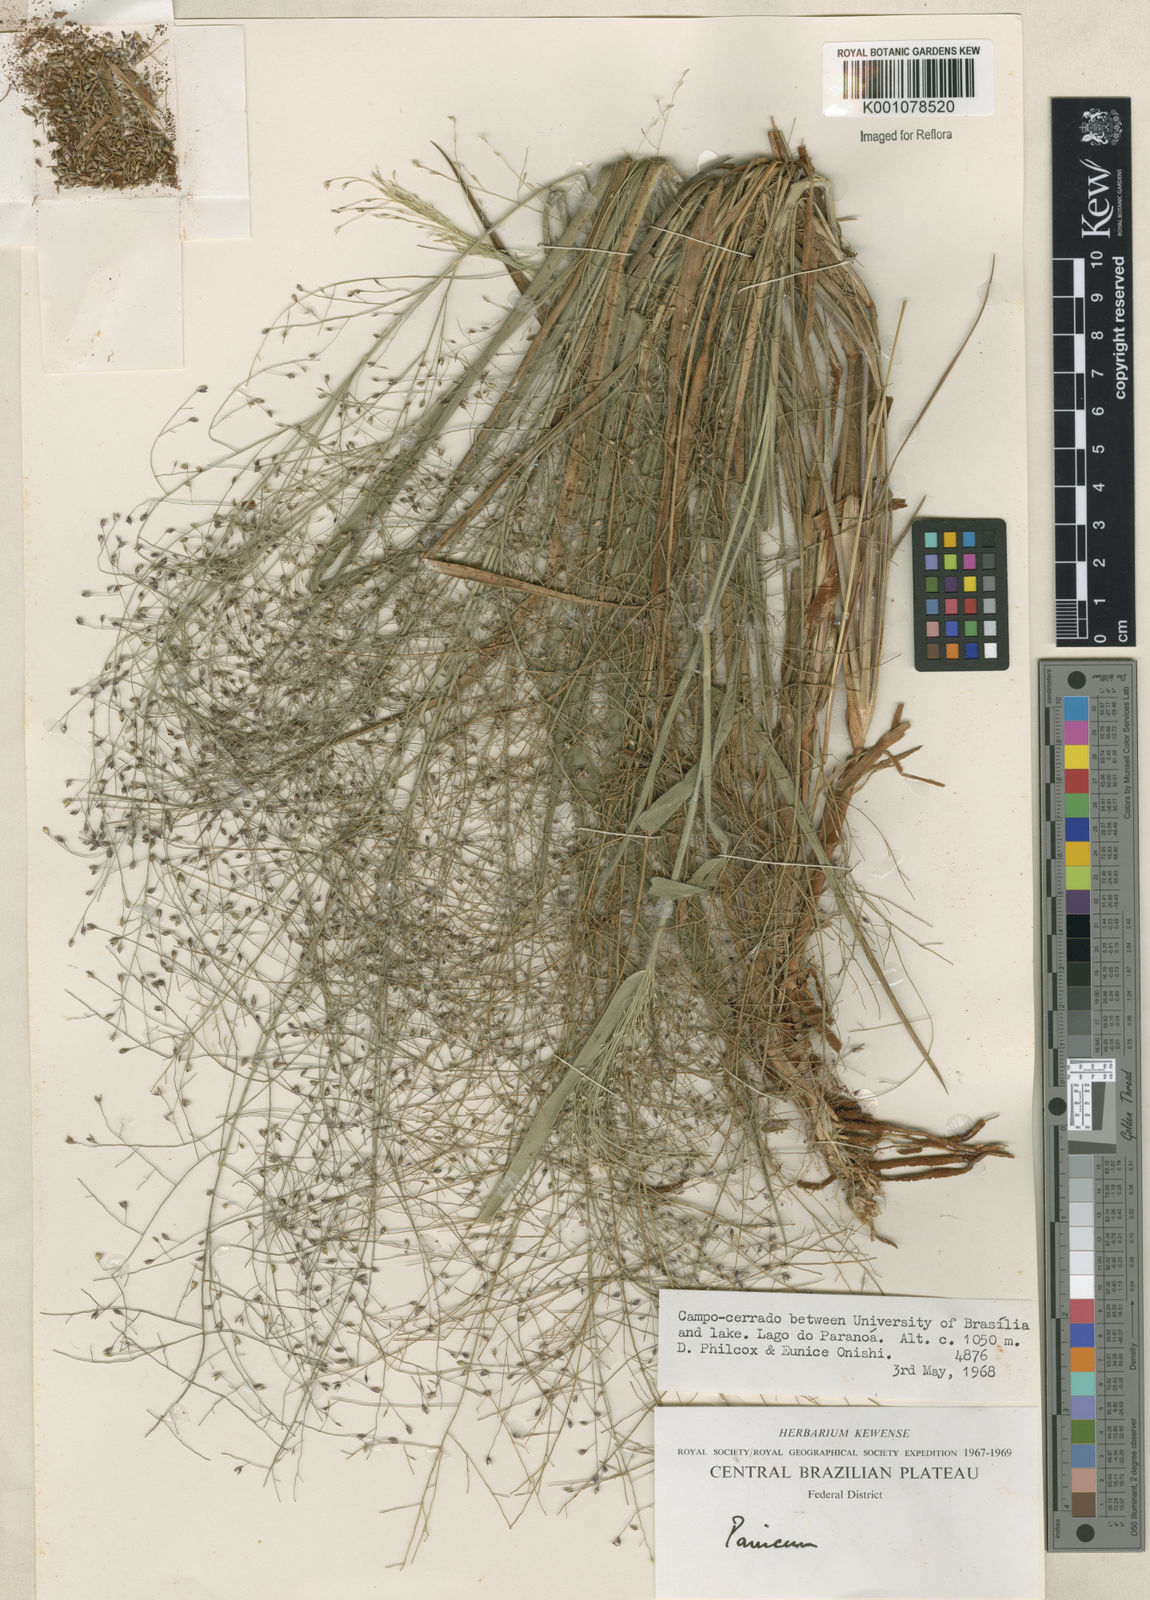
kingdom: Plantae
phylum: Tracheophyta
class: Liliopsida
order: Poales
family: Poaceae
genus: Panicum
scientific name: Panicum campestre
